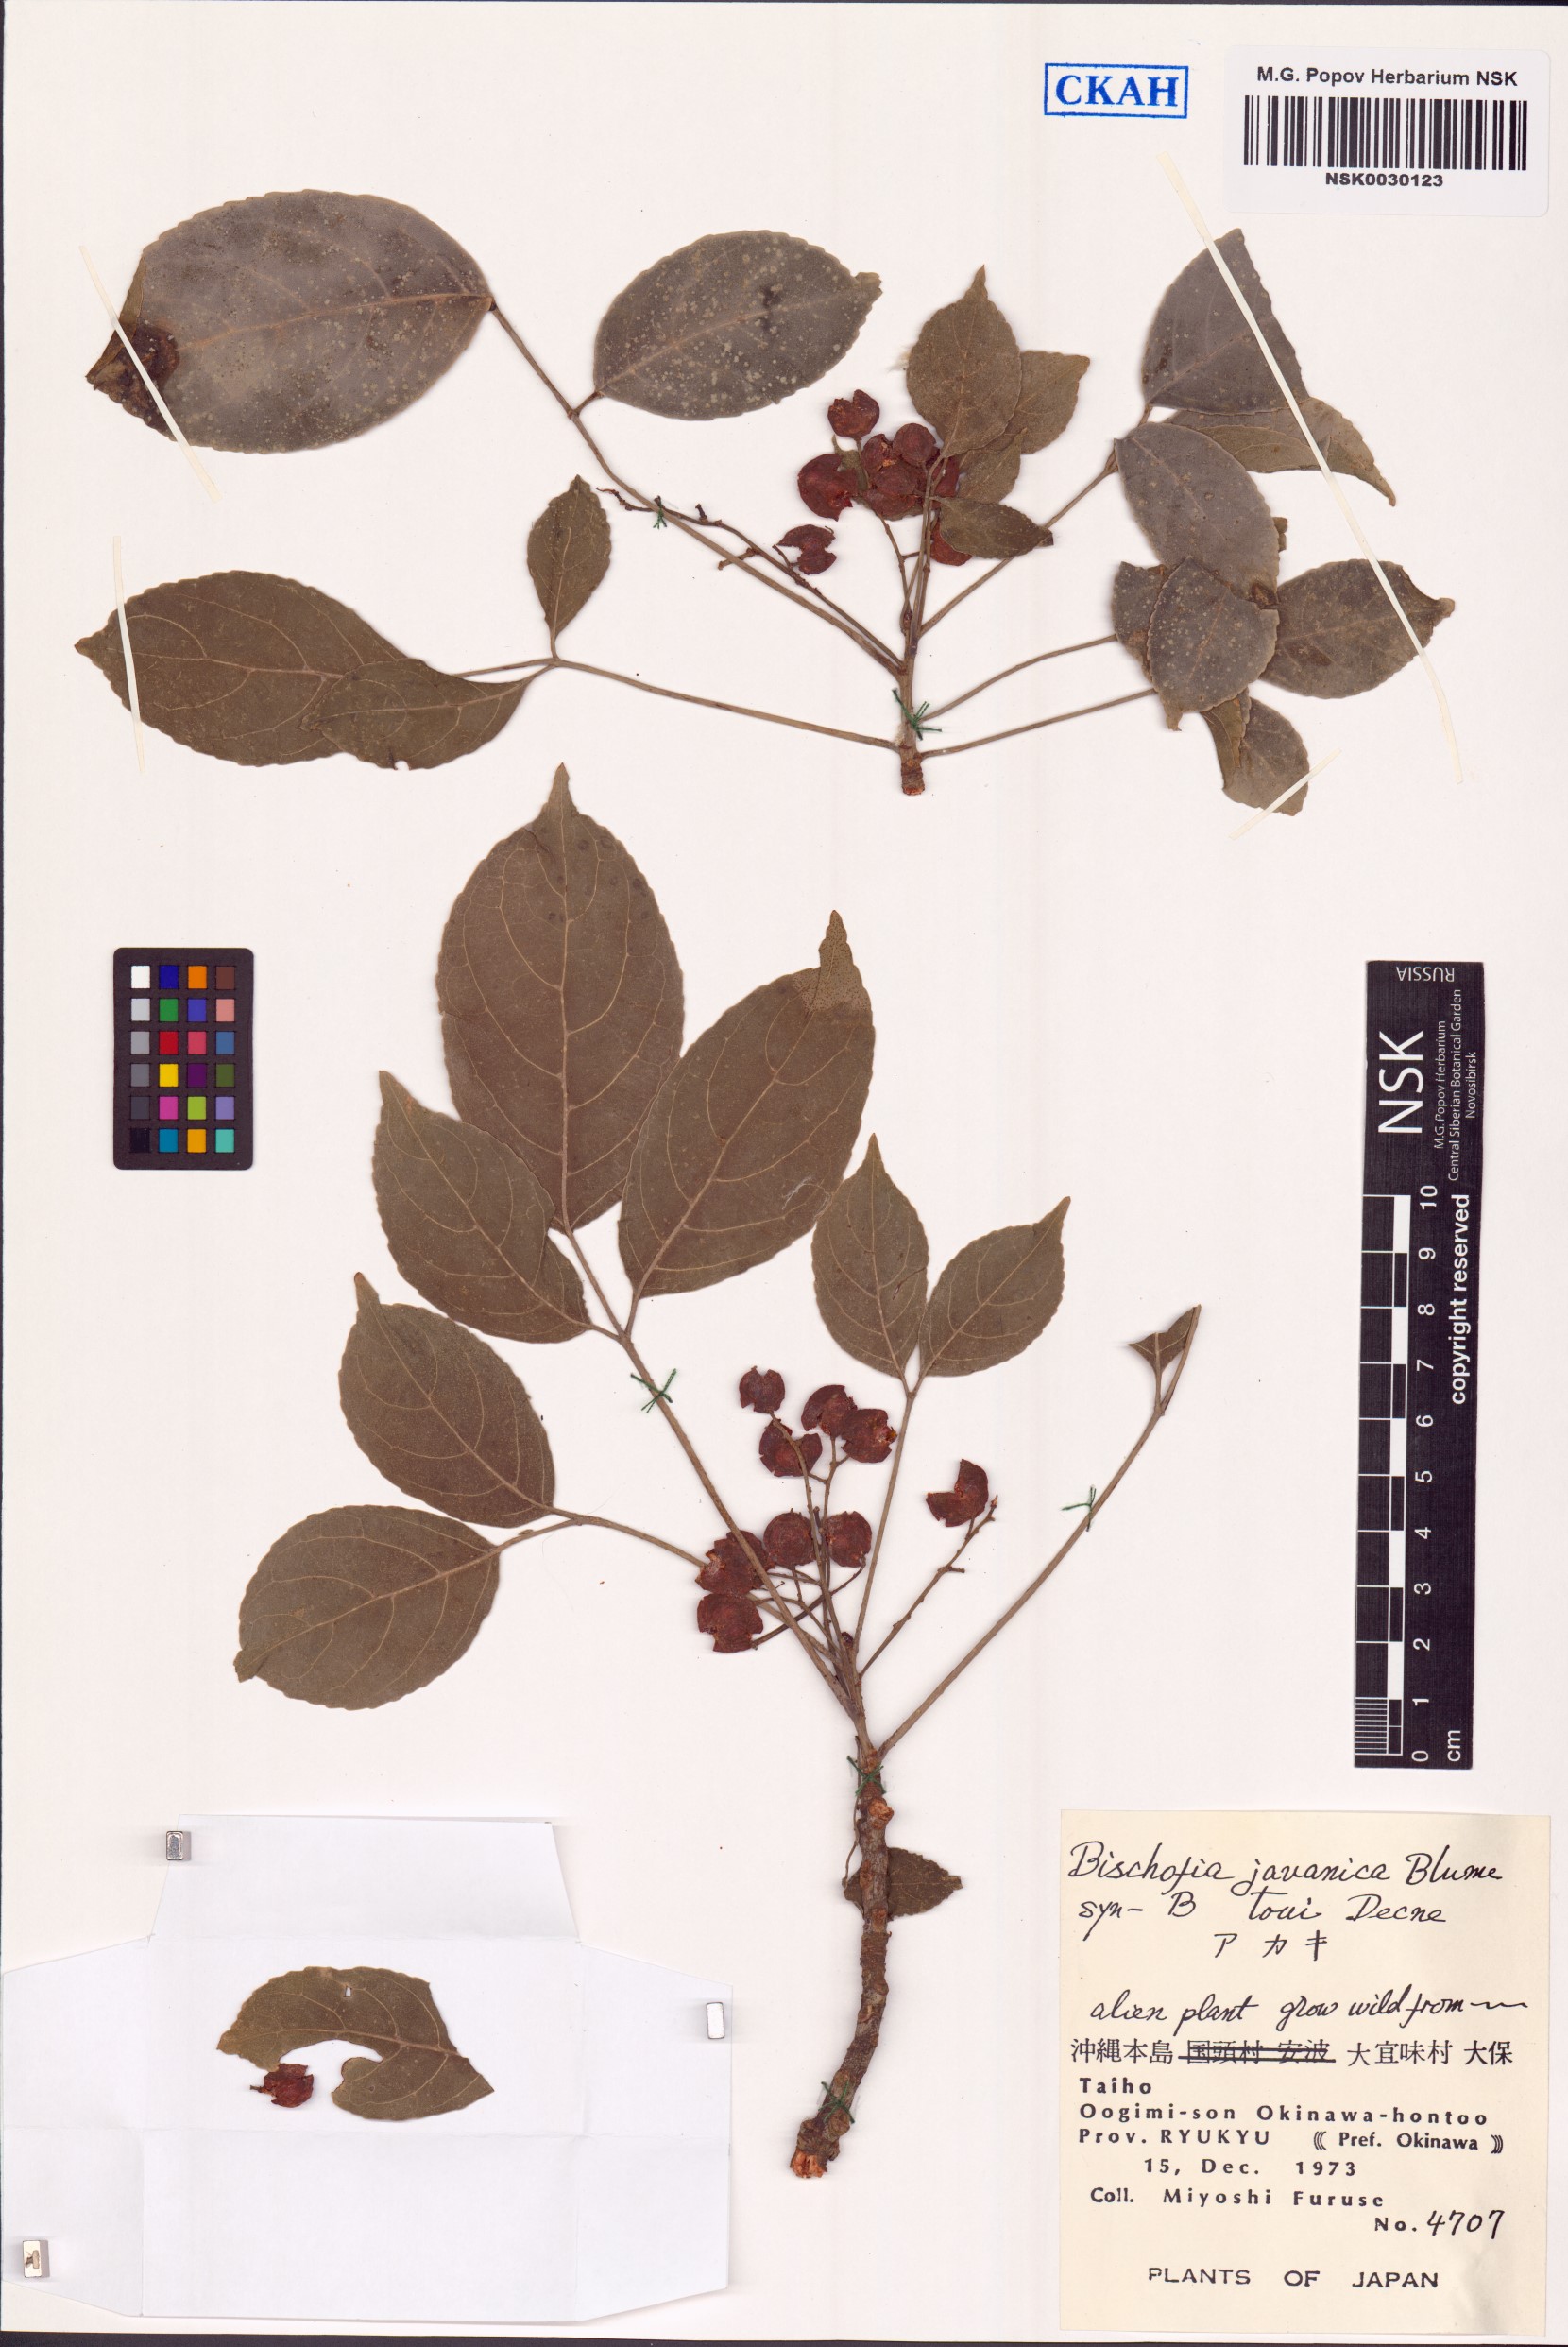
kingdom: Plantae
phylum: Tracheophyta
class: Magnoliopsida
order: Malpighiales
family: Phyllanthaceae
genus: Bischofia
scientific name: Bischofia javanica
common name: Javanese bishopwood
